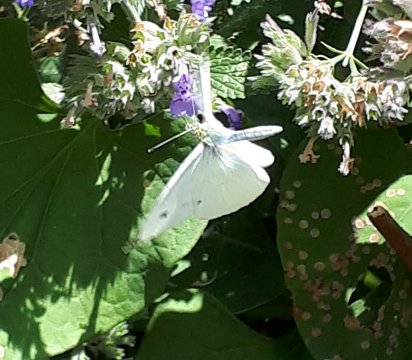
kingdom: Animalia
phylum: Arthropoda
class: Insecta
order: Lepidoptera
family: Pieridae
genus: Pieris
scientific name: Pieris rapae
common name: Cabbage White
